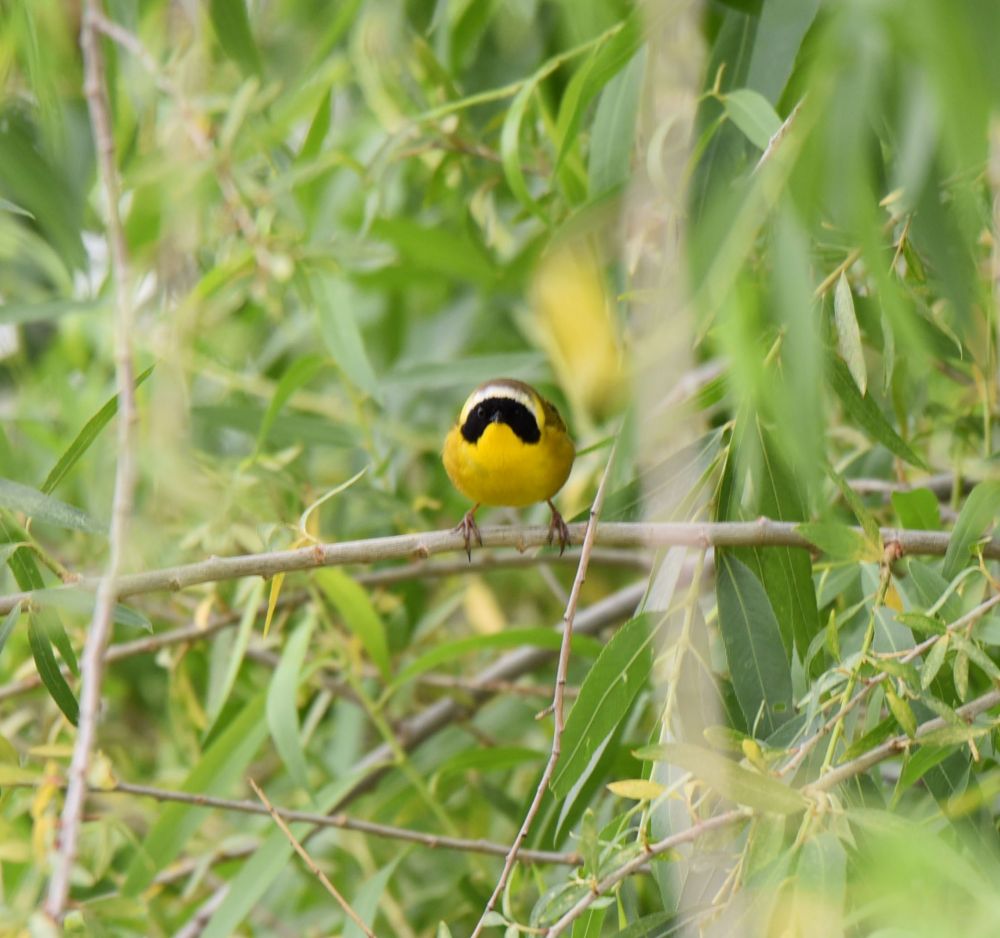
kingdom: Animalia
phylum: Chordata
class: Aves
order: Passeriformes
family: Parulidae
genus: Geothlypis
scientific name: Geothlypis trichas
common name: Common yellowthroat
